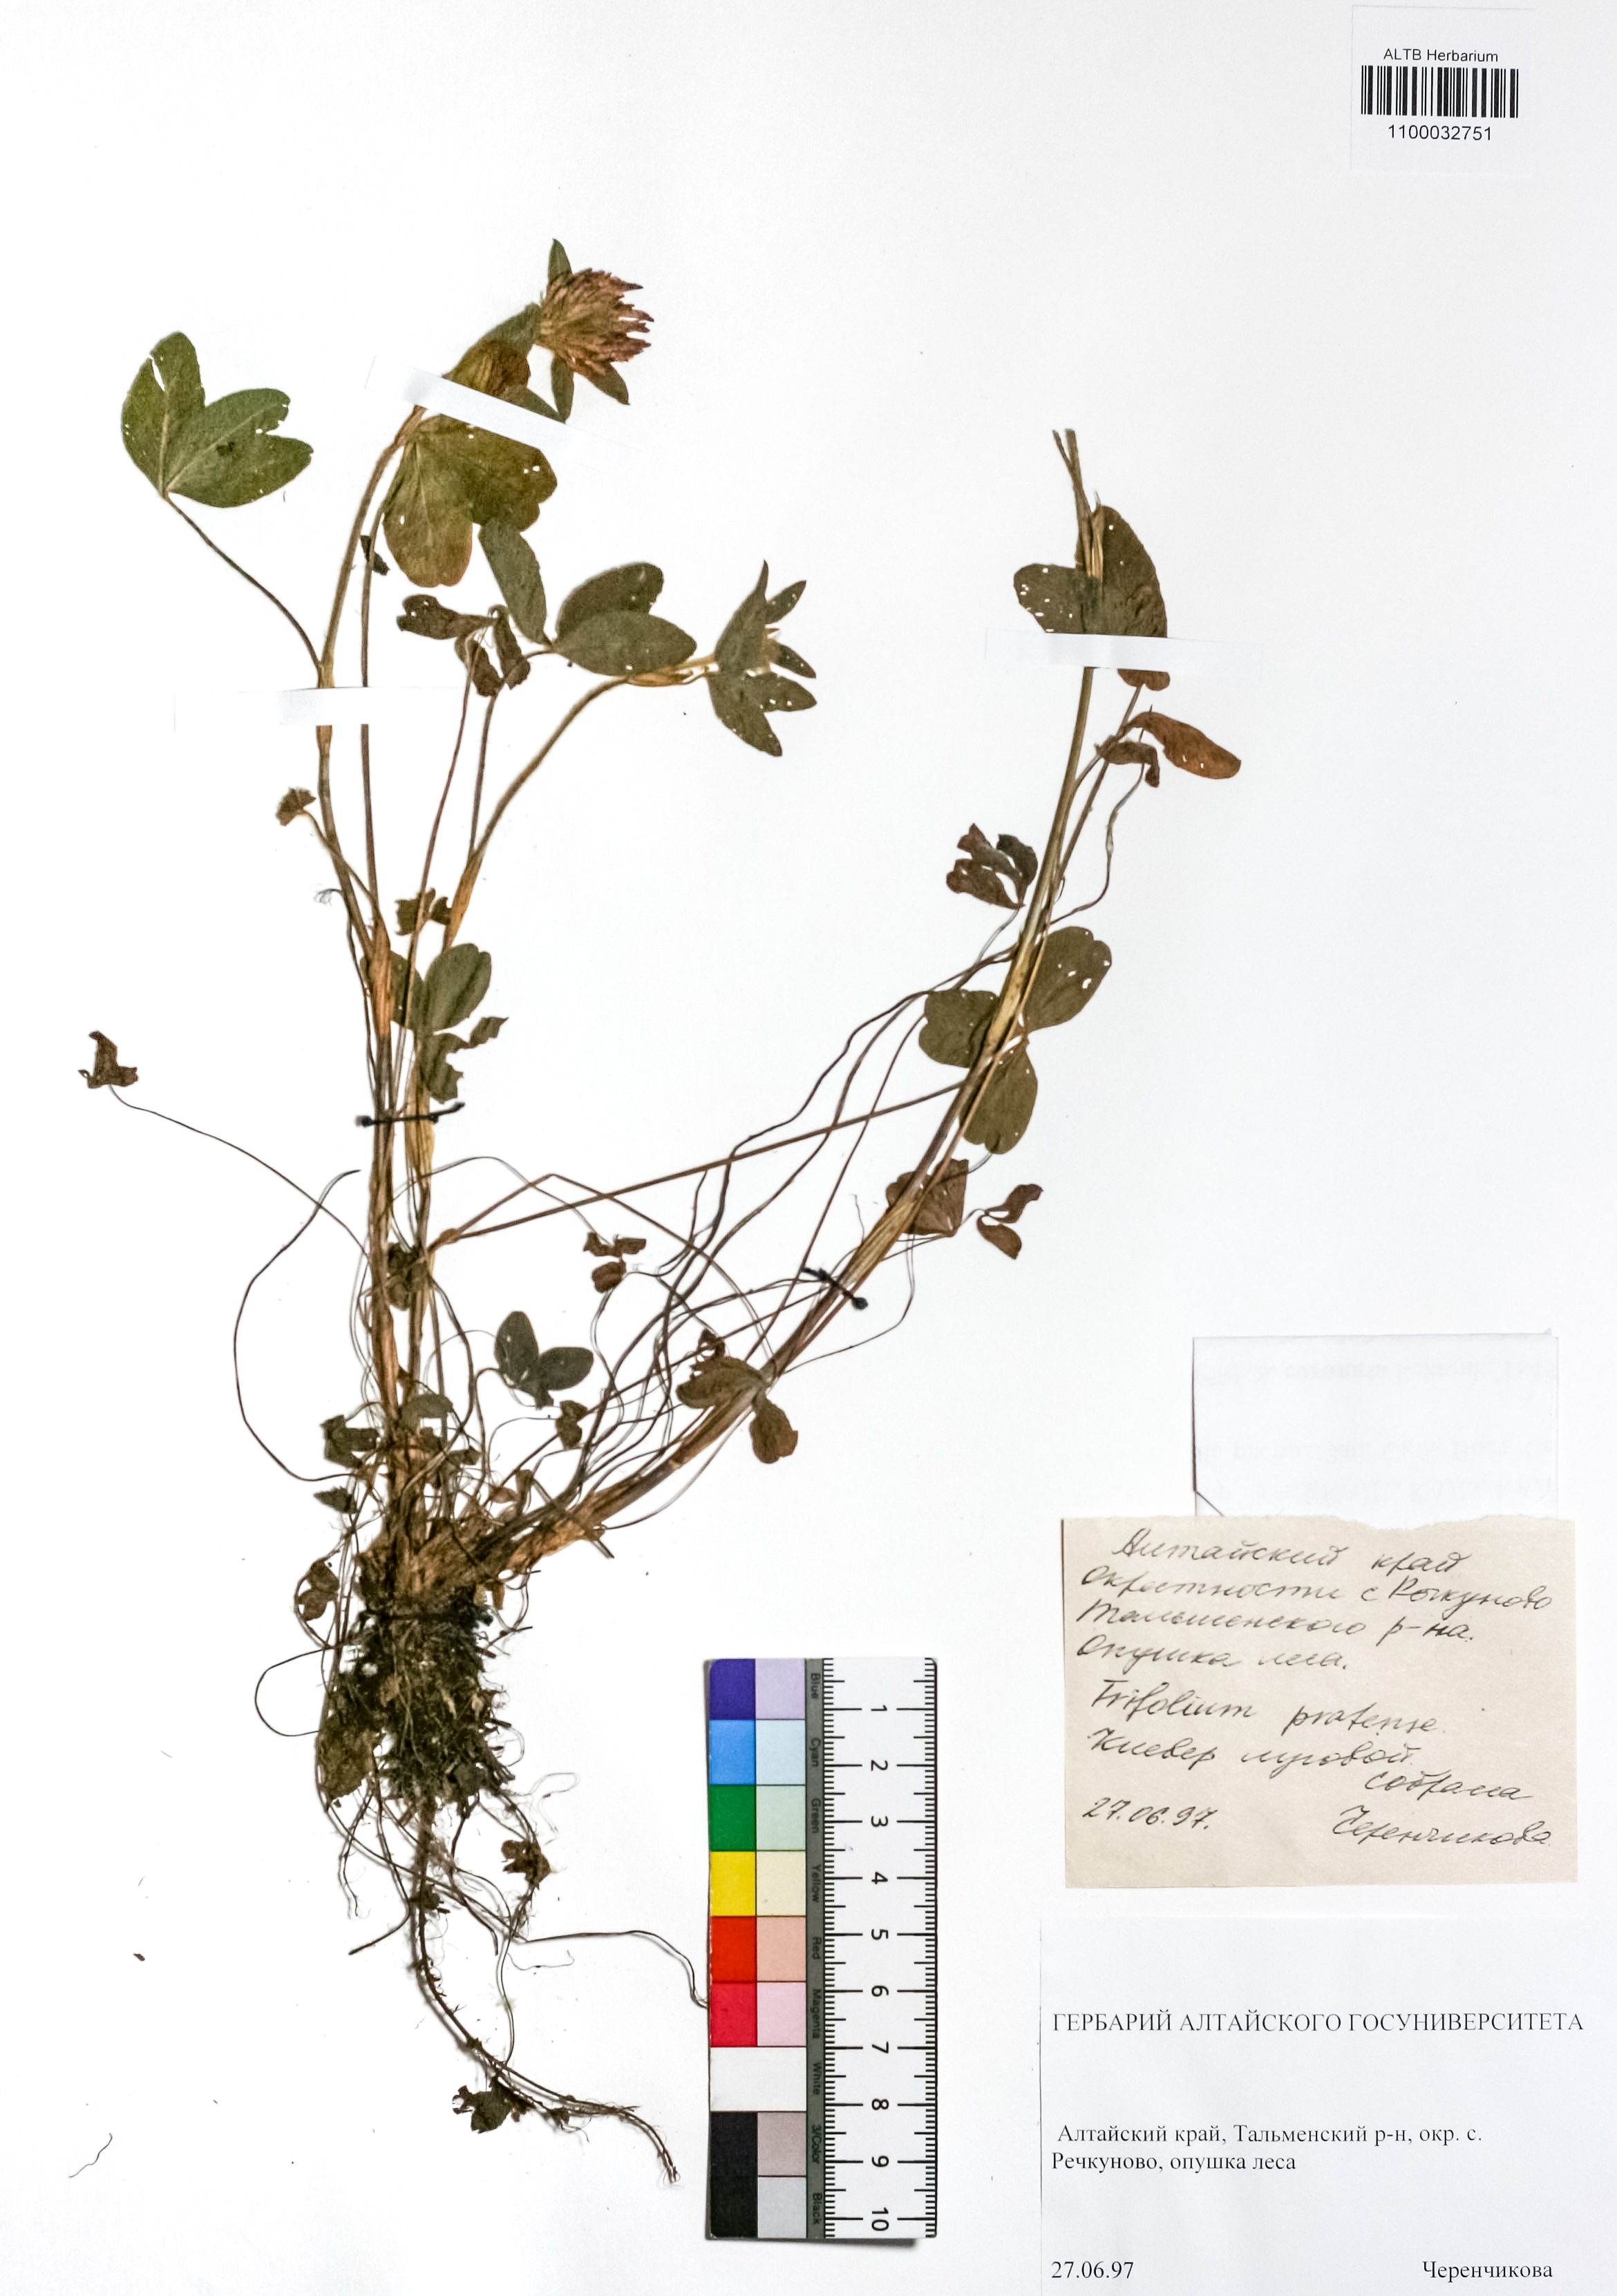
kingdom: Plantae
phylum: Tracheophyta
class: Magnoliopsida
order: Fabales
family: Fabaceae
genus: Trifolium
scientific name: Trifolium pratense
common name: Red clover
